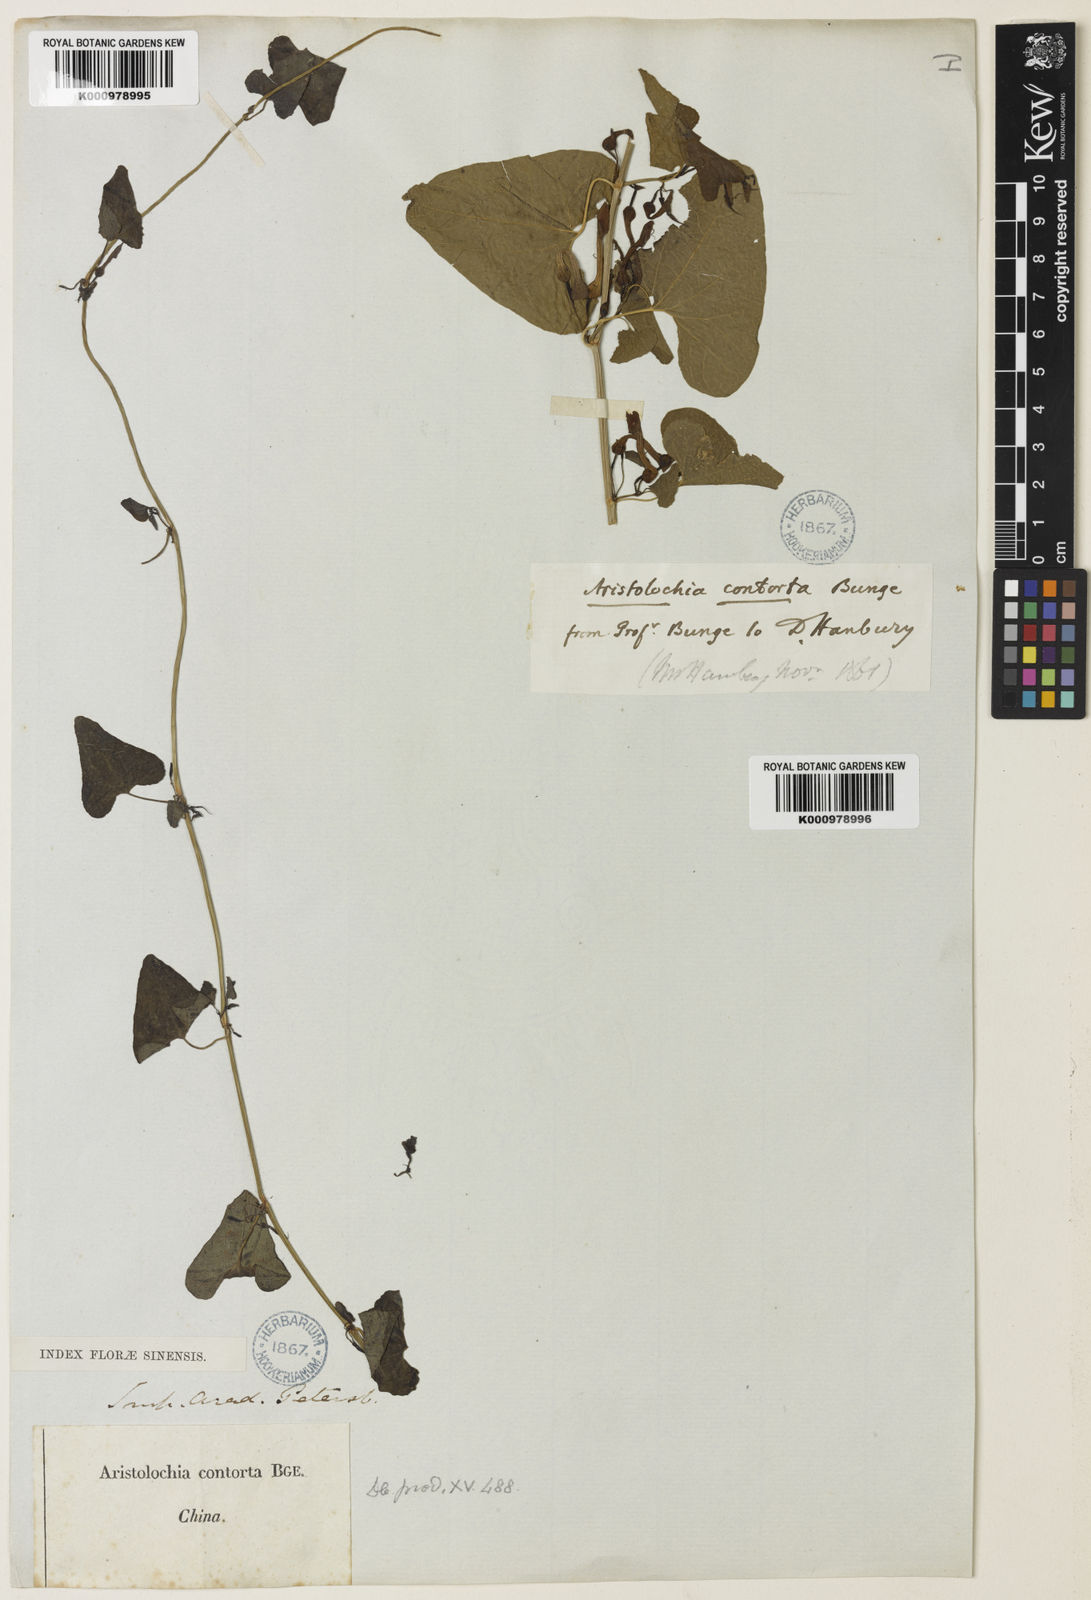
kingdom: Plantae
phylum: Tracheophyta
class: Magnoliopsida
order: Piperales
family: Aristolochiaceae
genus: Aristolochia
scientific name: Aristolochia contorta
